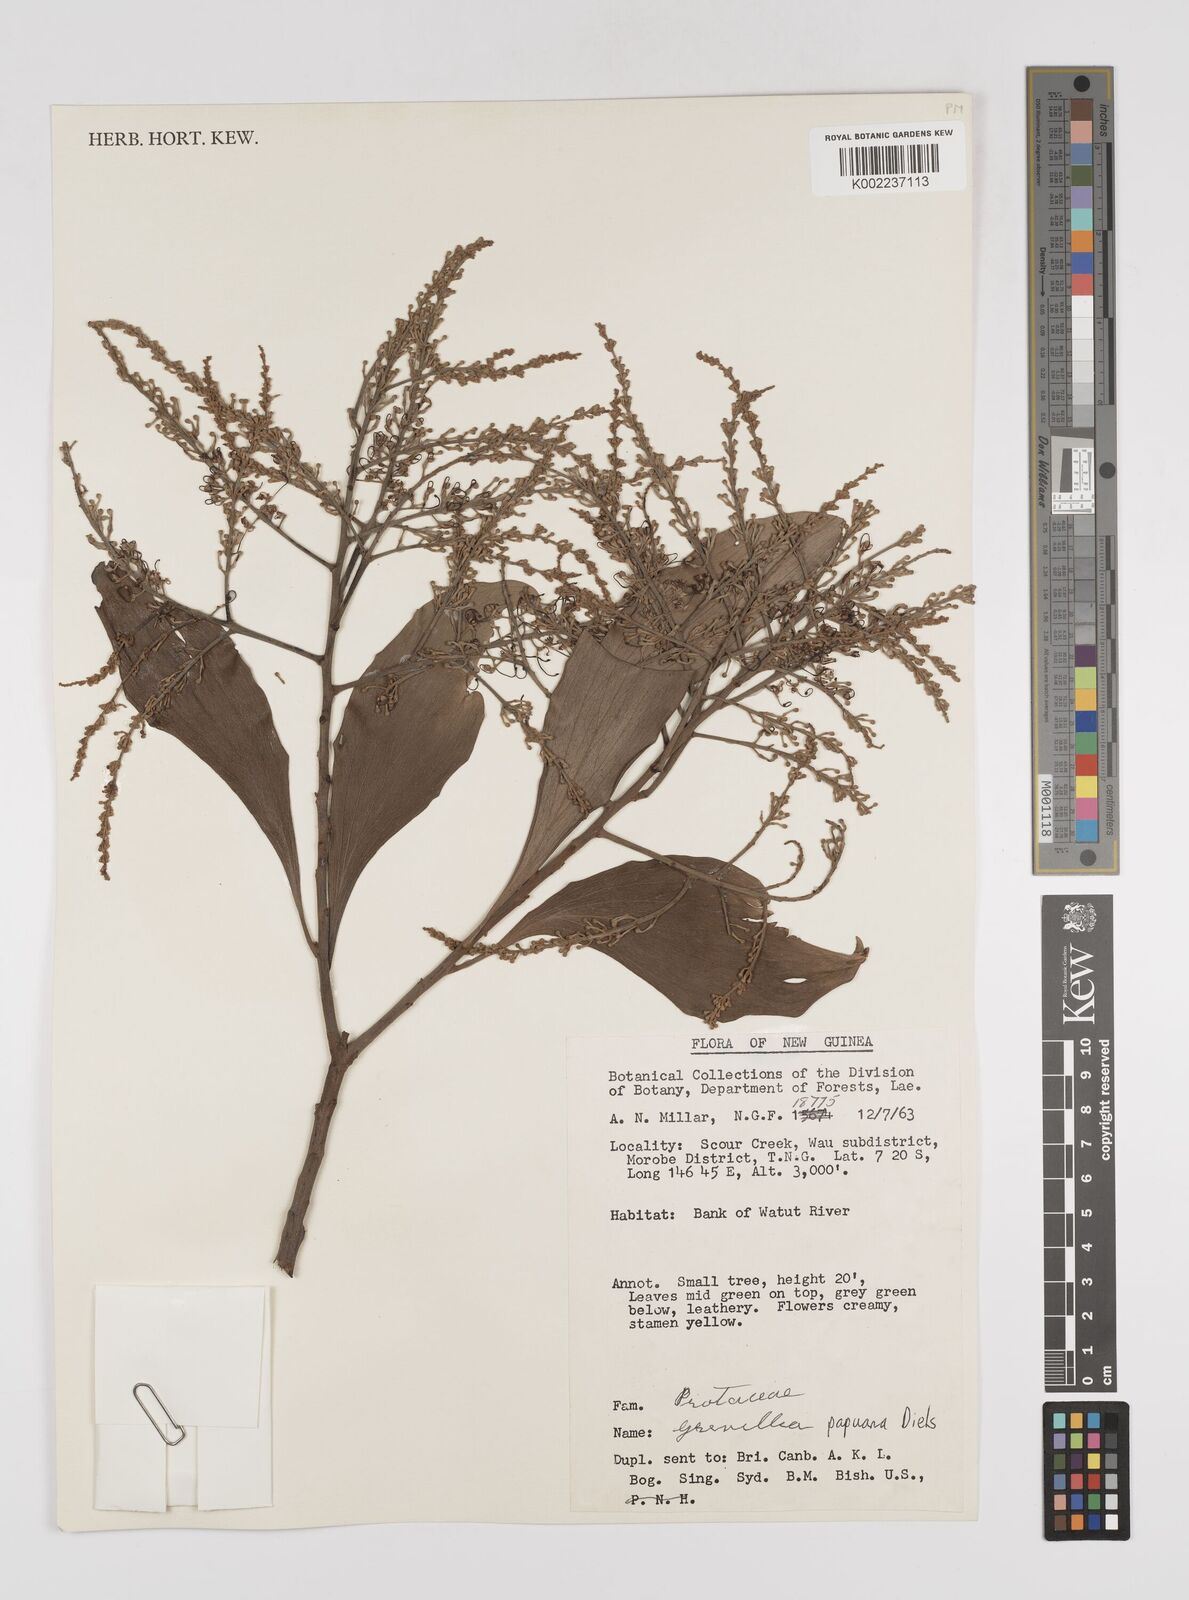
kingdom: Plantae
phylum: Tracheophyta
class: Magnoliopsida
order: Proteales
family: Proteaceae
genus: Grevillea
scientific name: Grevillea papuana
